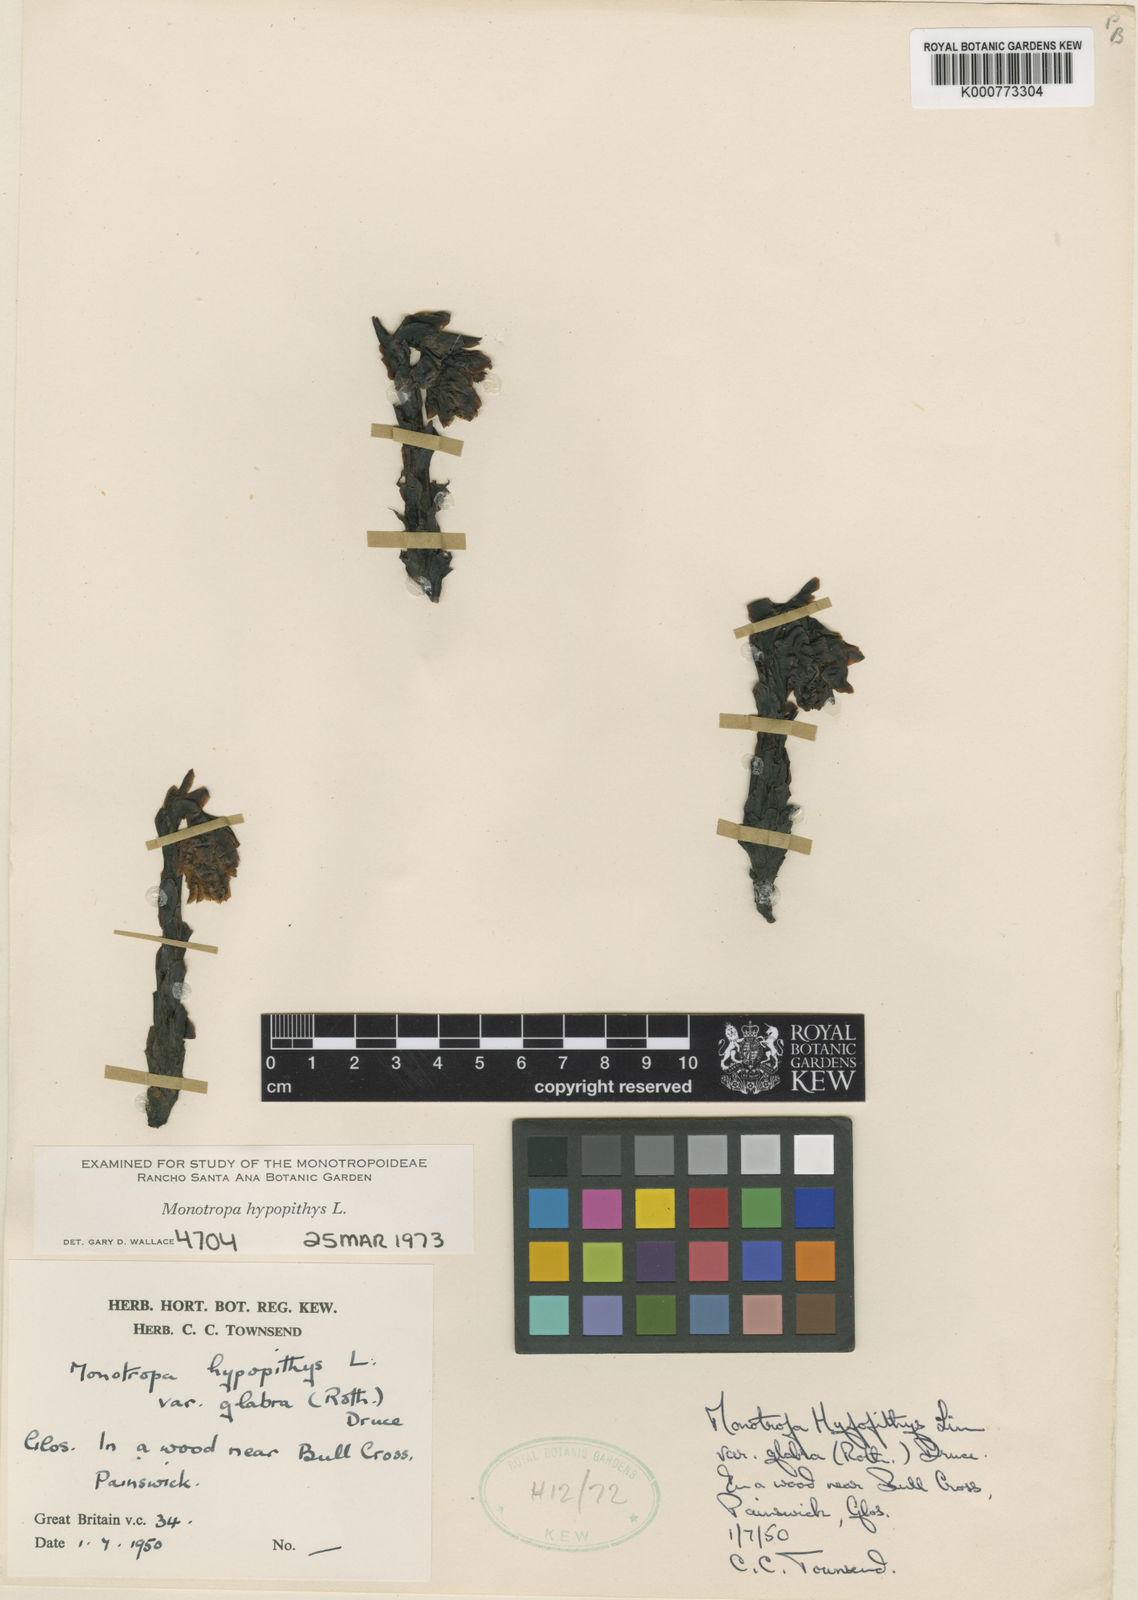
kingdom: Plantae
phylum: Tracheophyta
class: Magnoliopsida
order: Ericales
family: Ericaceae
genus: Monotropa
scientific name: Monotropa
